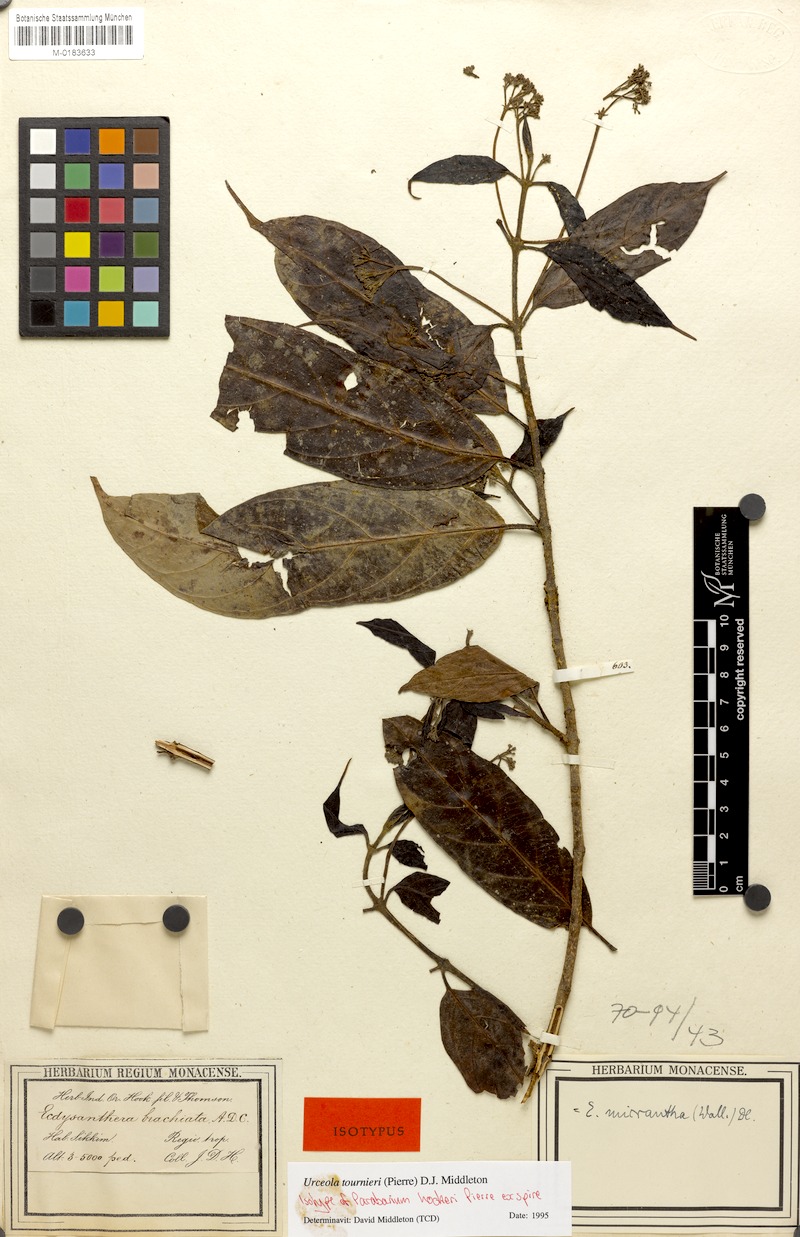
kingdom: Plantae
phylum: Tracheophyta
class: Magnoliopsida
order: Gentianales
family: Apocynaceae
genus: Urceola
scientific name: Urceola tournieri
